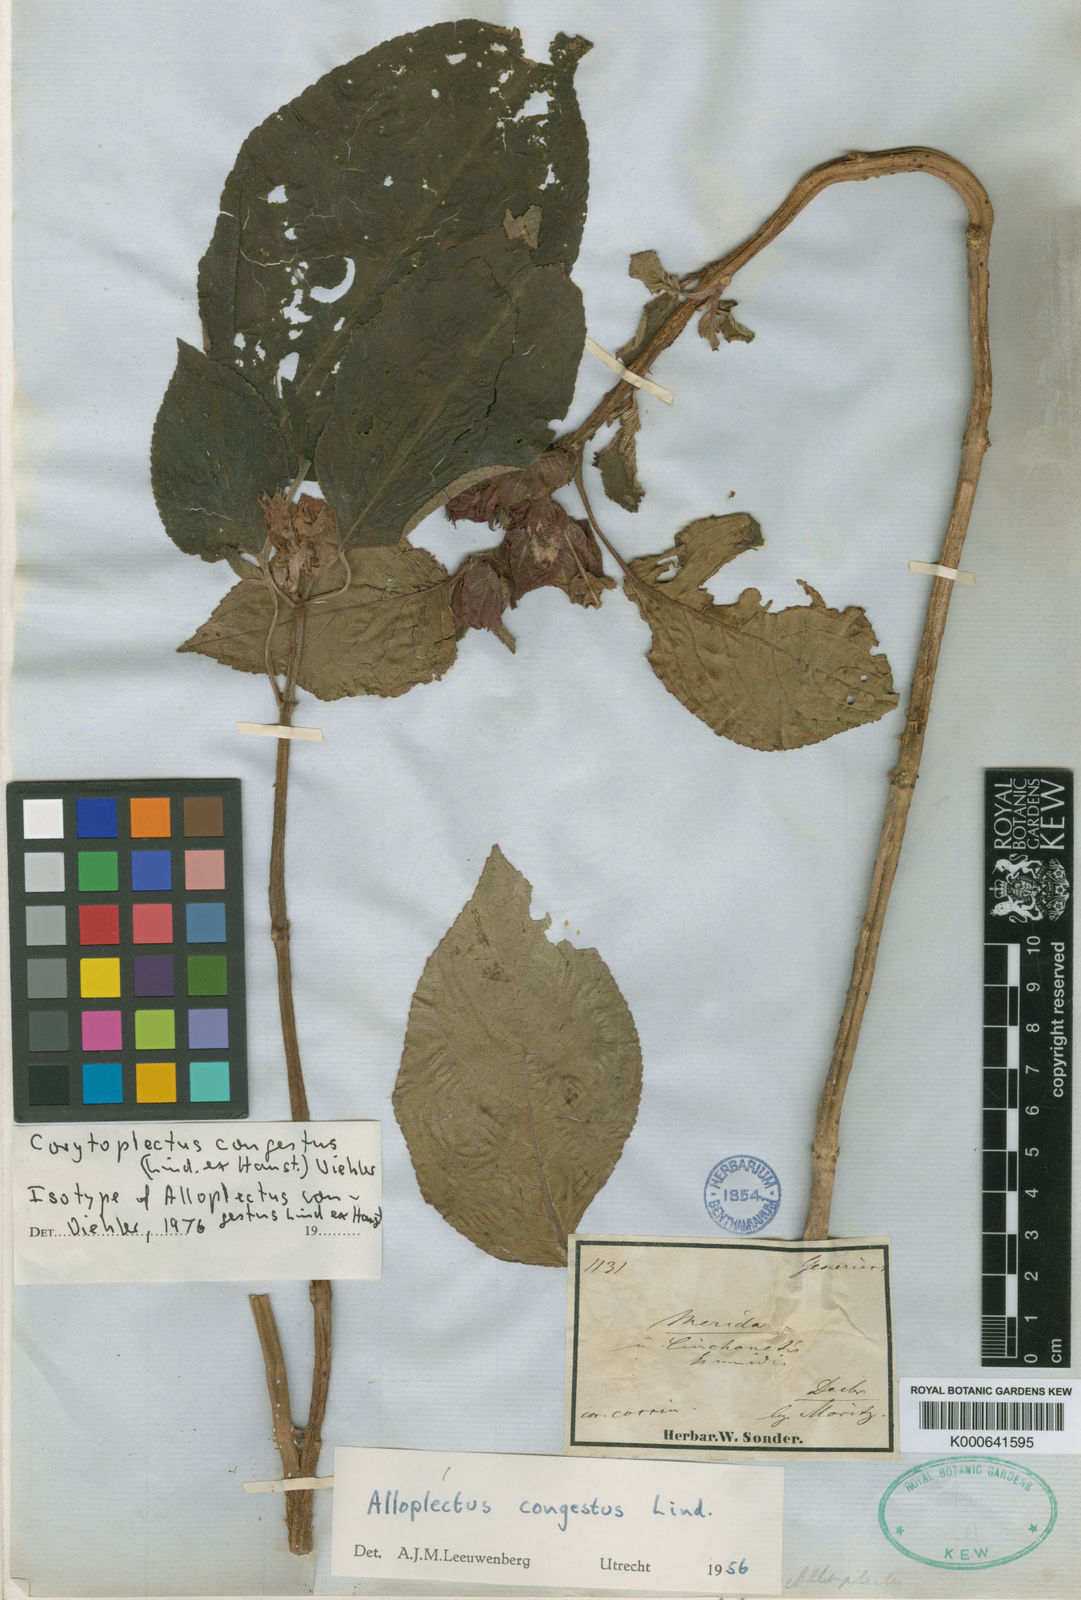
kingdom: Plantae
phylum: Tracheophyta
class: Magnoliopsida
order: Lamiales
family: Gesneriaceae
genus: Corytoplectus
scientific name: Corytoplectus congestus
